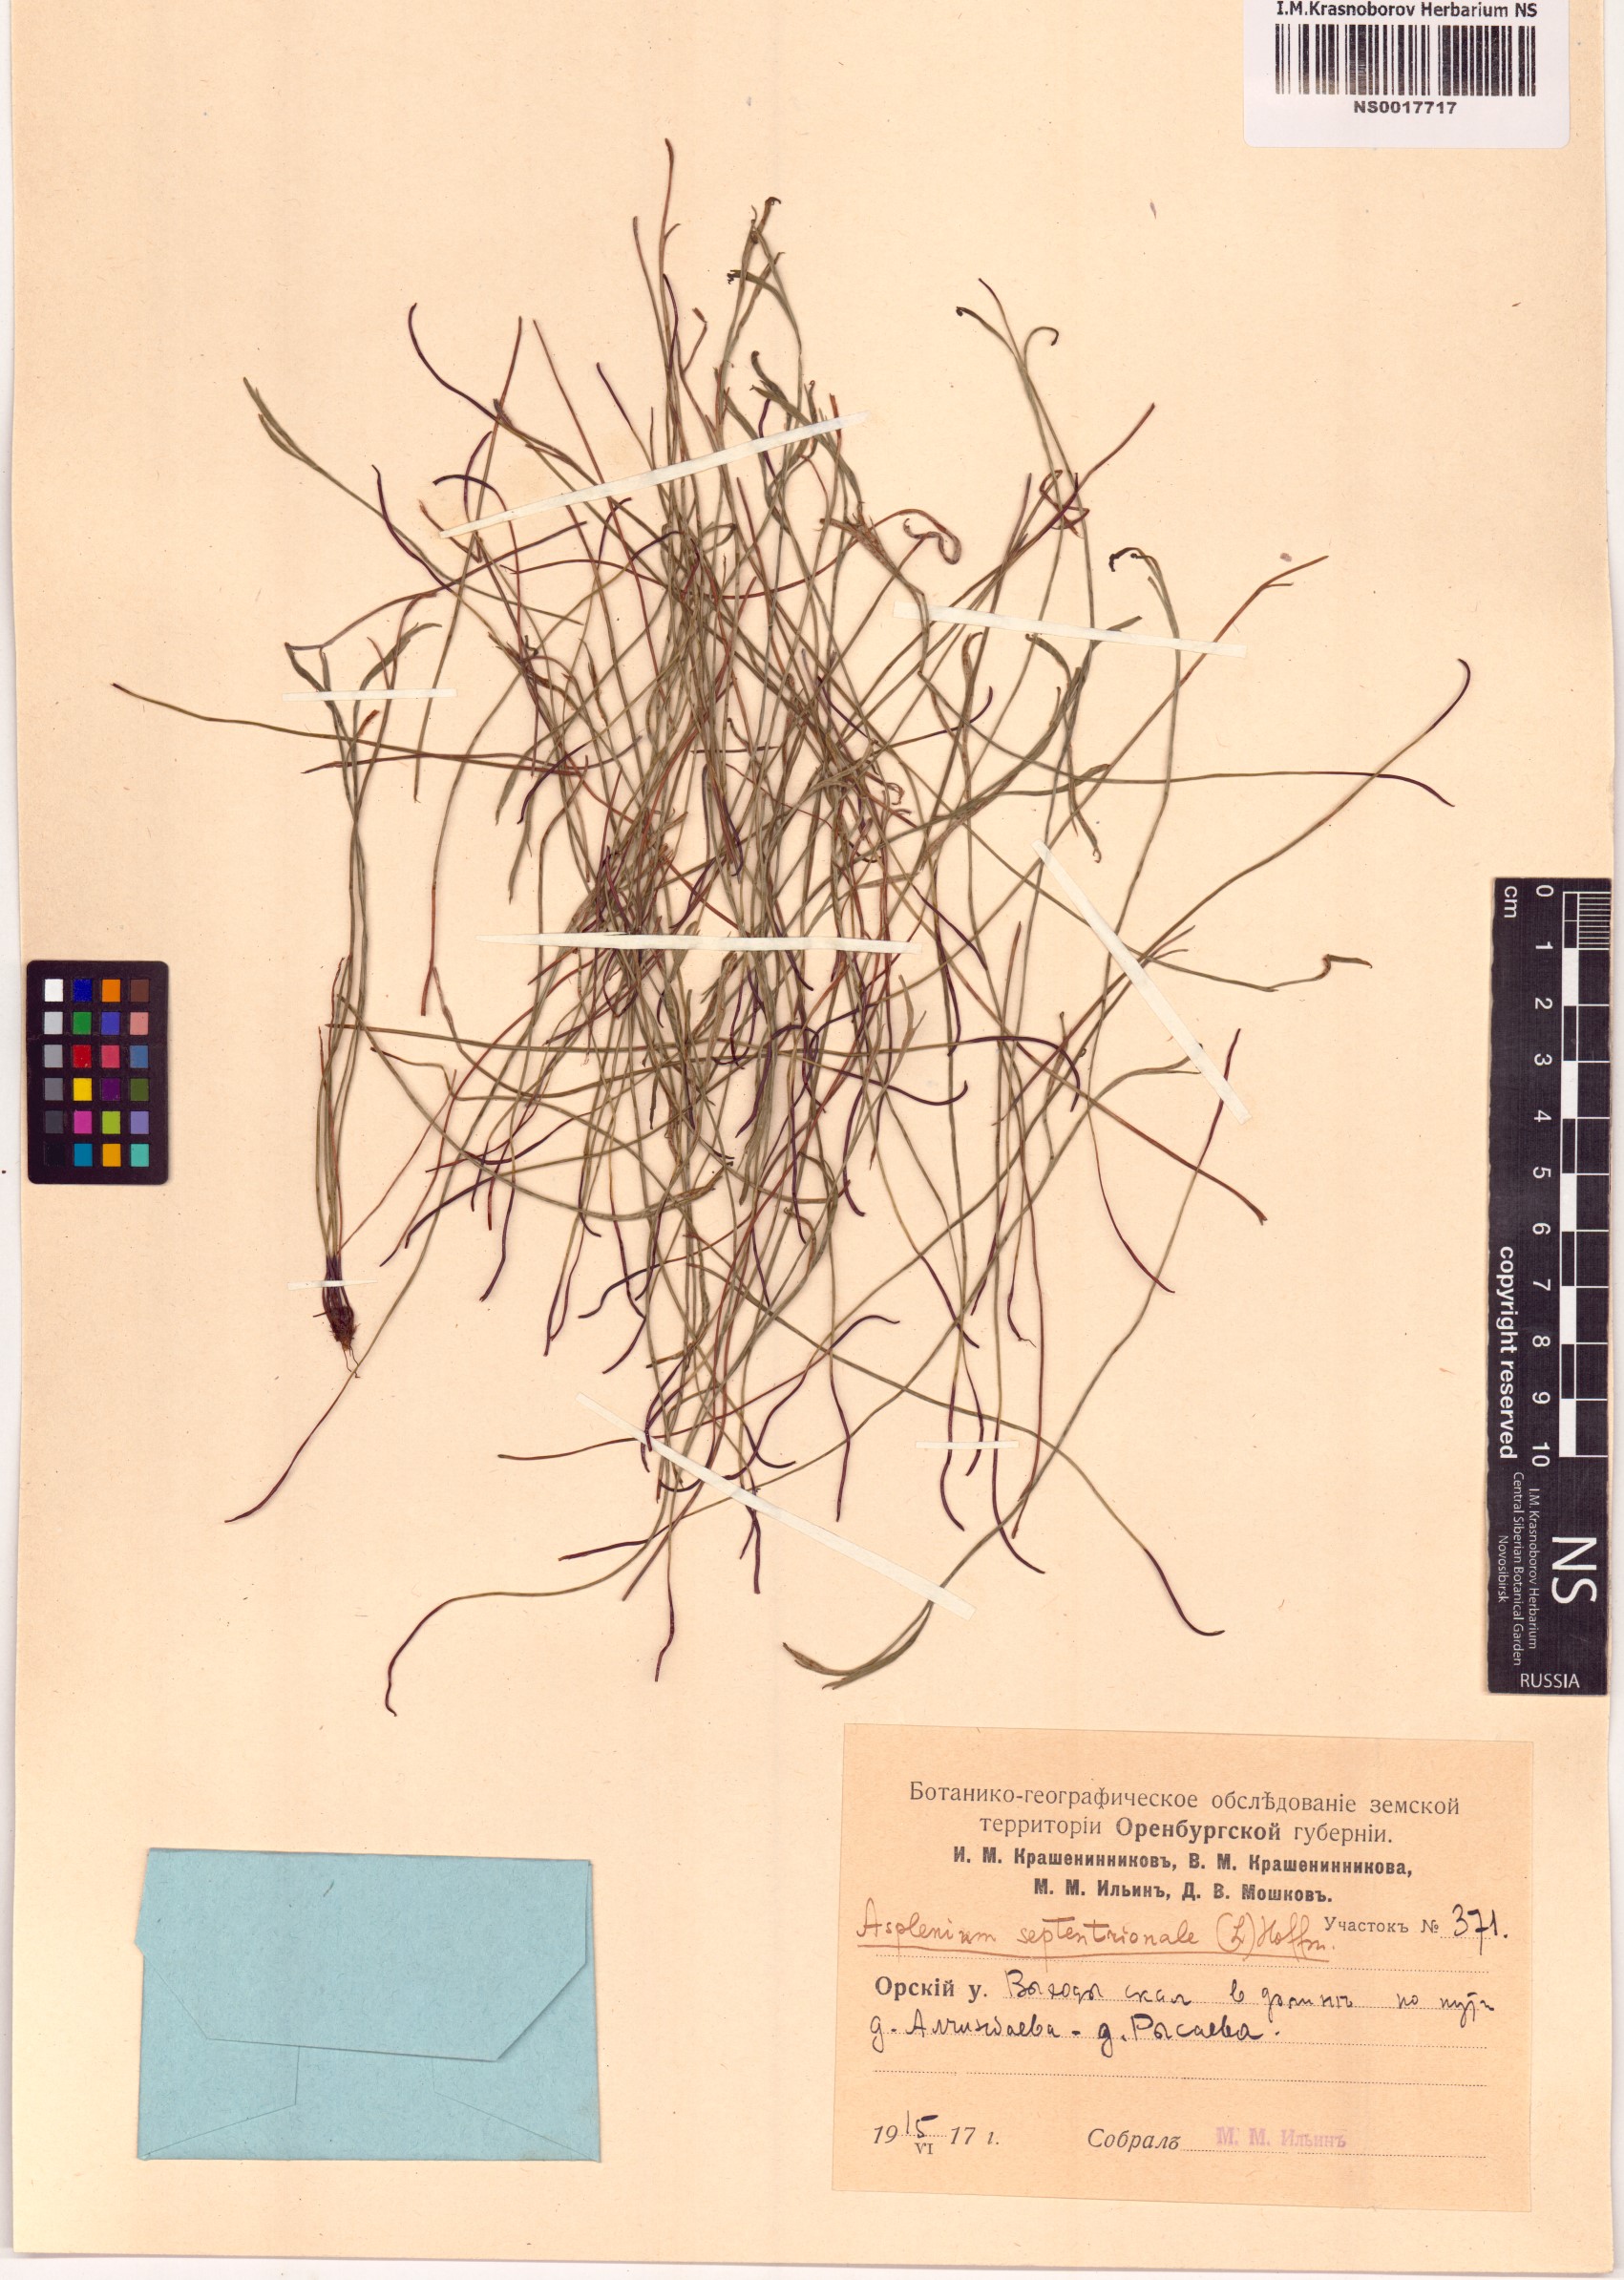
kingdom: Plantae
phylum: Tracheophyta
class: Polypodiopsida
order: Polypodiales
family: Aspleniaceae
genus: Asplenium
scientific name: Asplenium septentrionale
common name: Forked spleenwort
